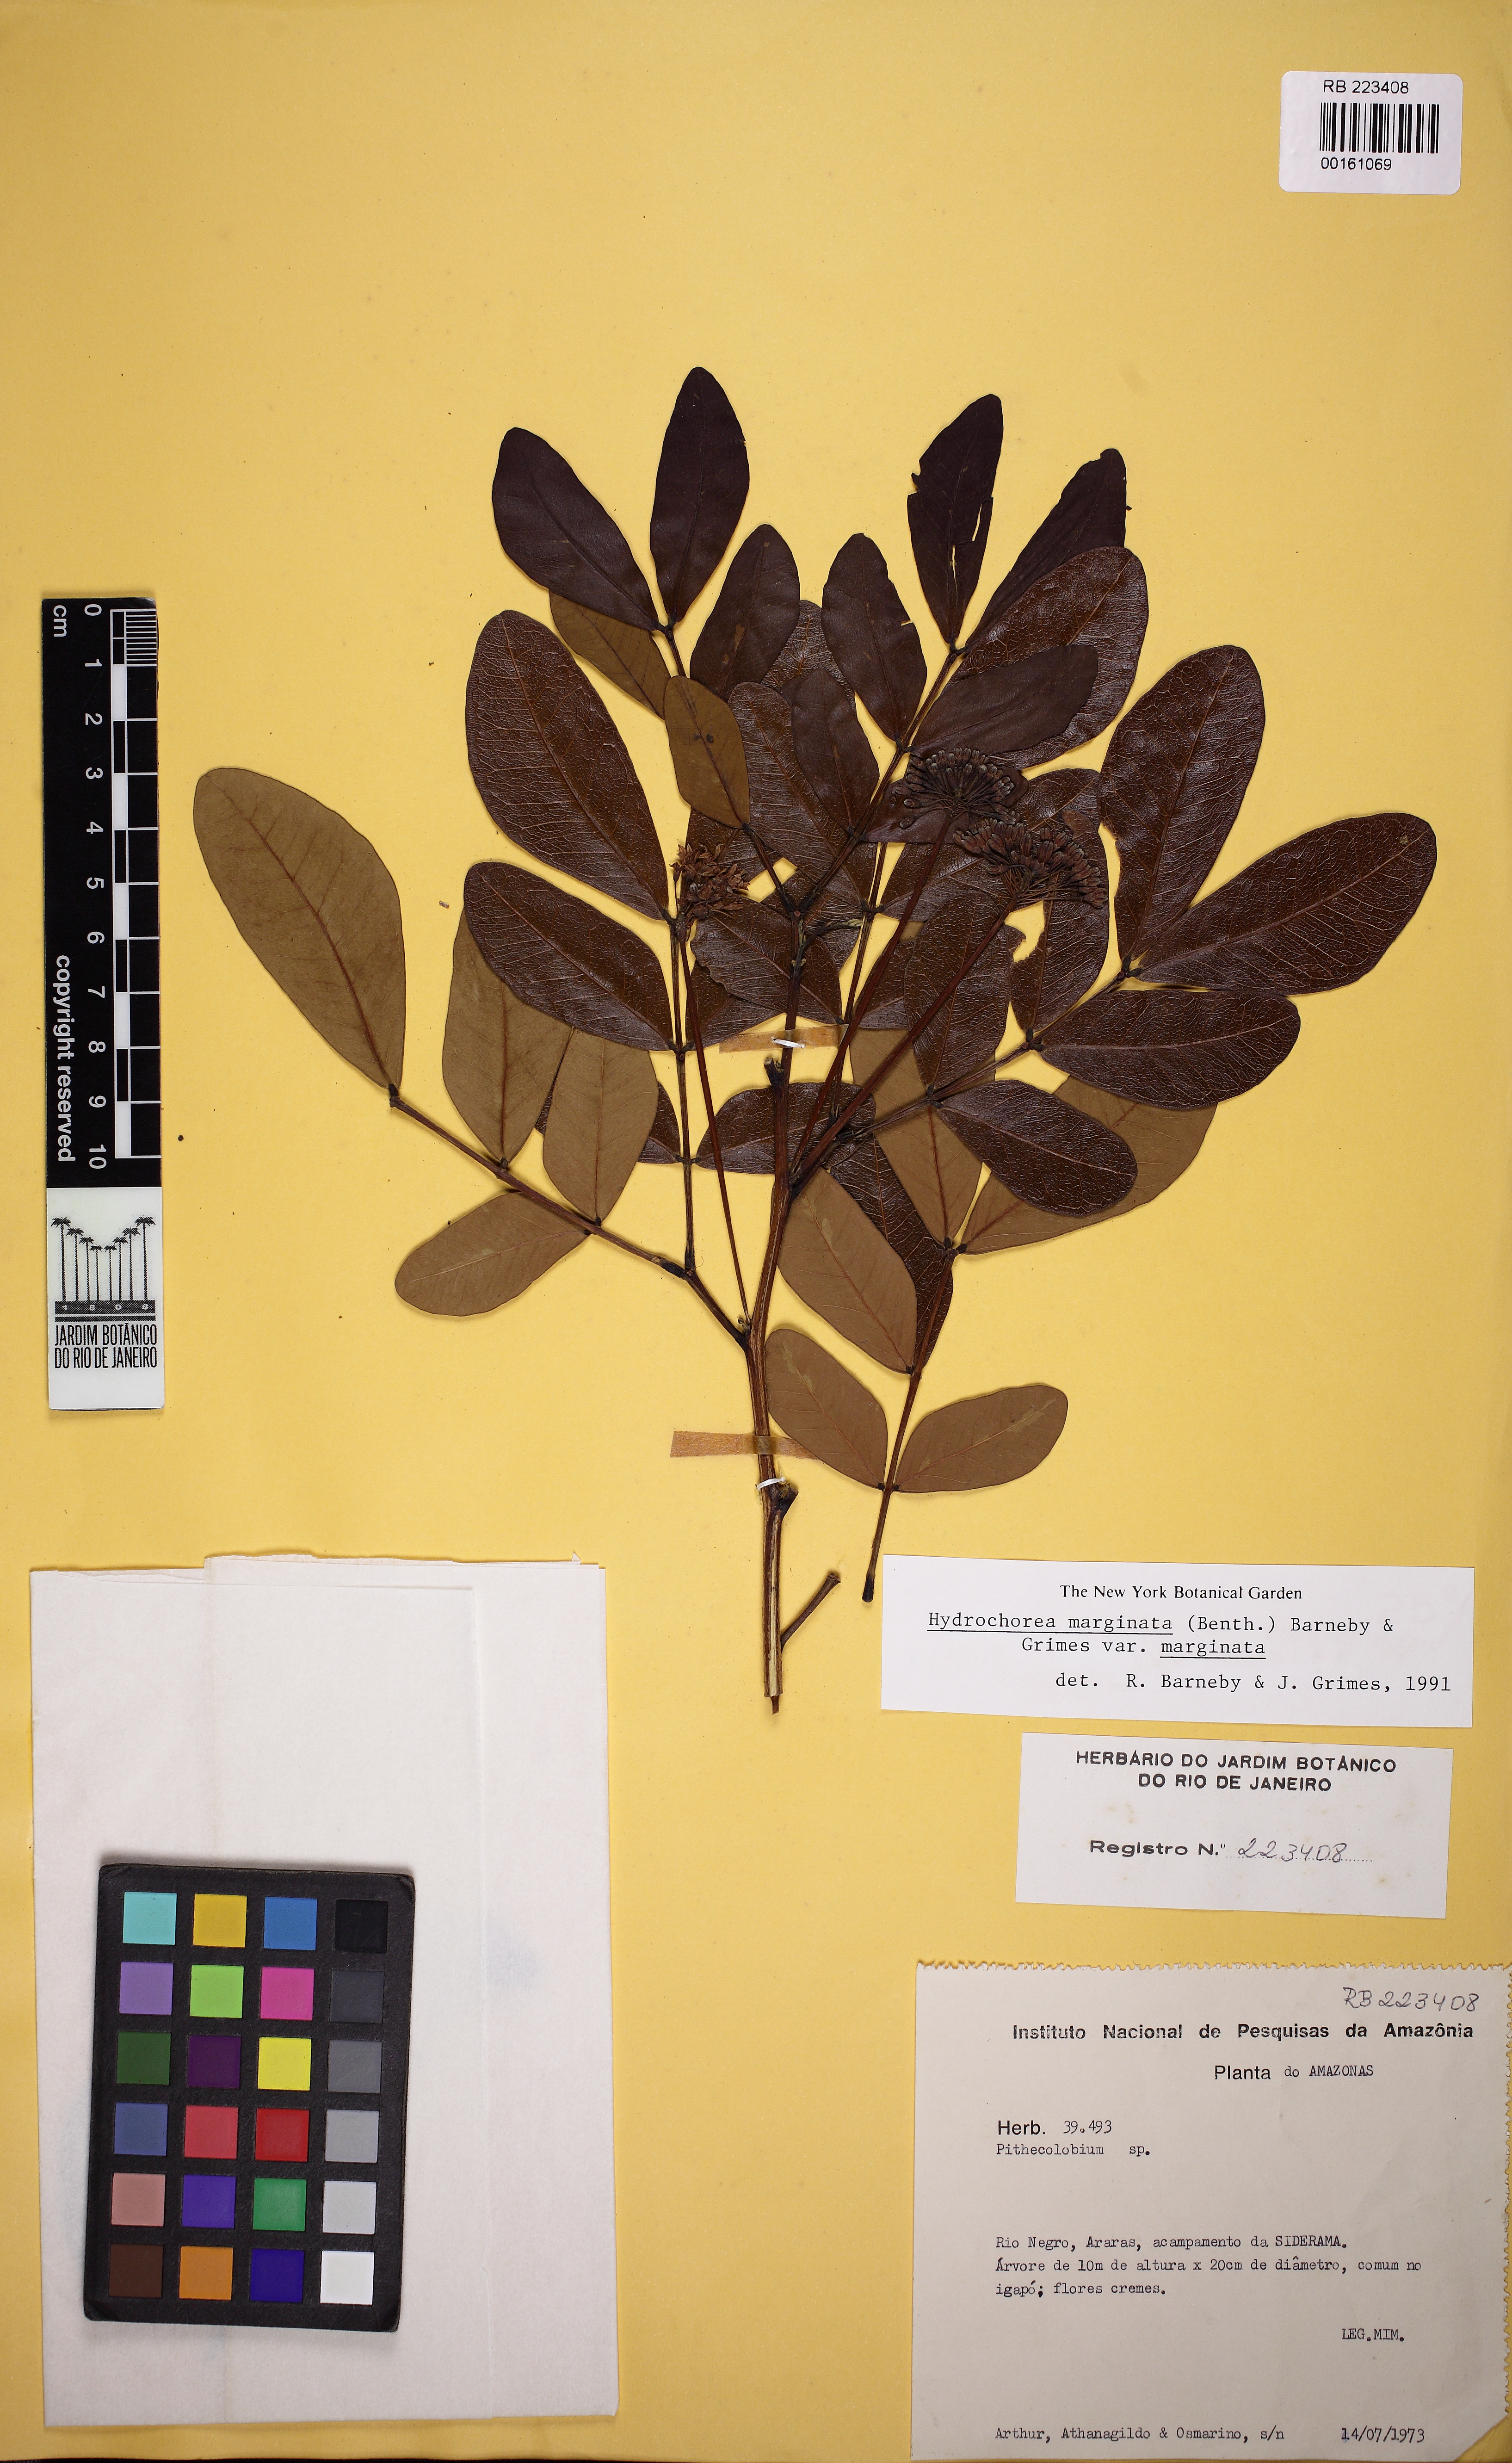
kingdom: Plantae
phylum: Tracheophyta
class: Magnoliopsida
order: Fabales
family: Fabaceae
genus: Hydrochorea
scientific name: Hydrochorea marginata
